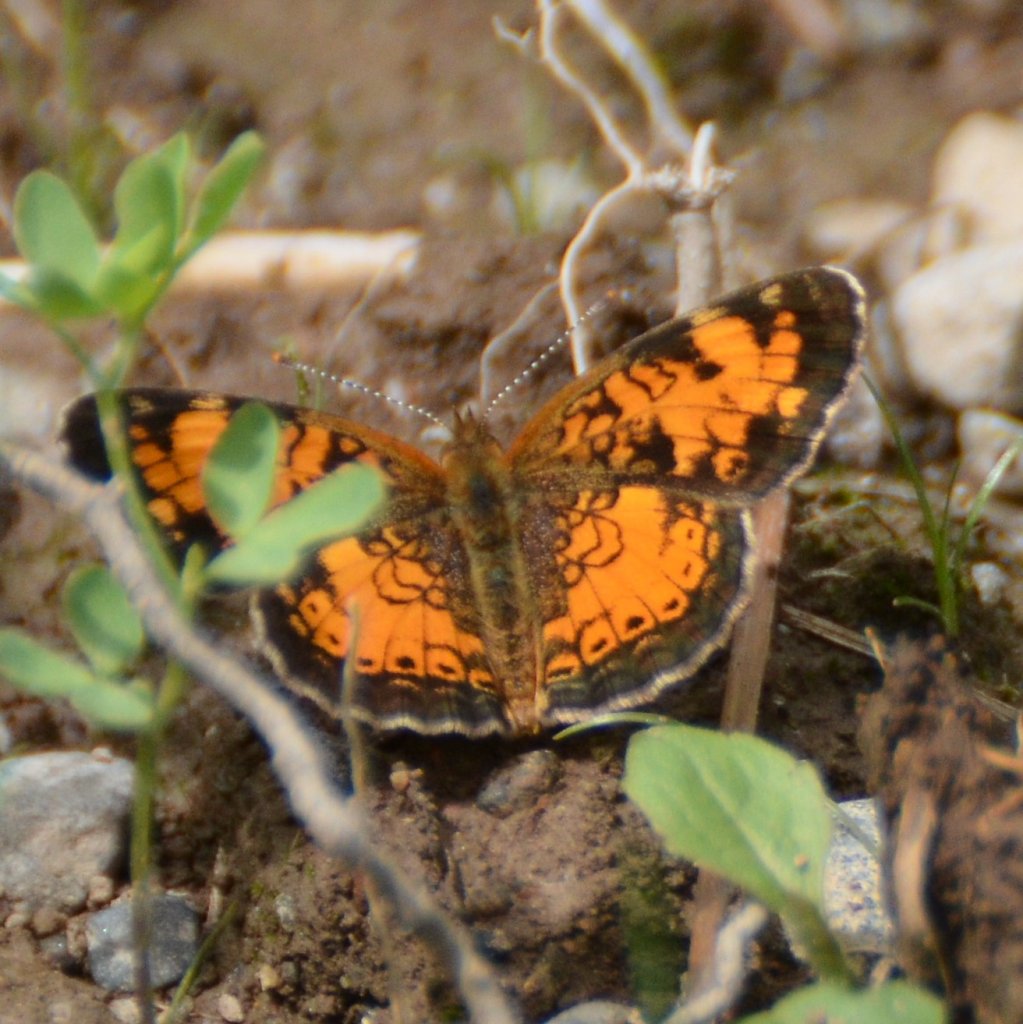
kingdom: Animalia
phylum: Arthropoda
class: Insecta
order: Lepidoptera
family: Nymphalidae
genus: Phyciodes
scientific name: Phyciodes tharos
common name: Northern Crescent
